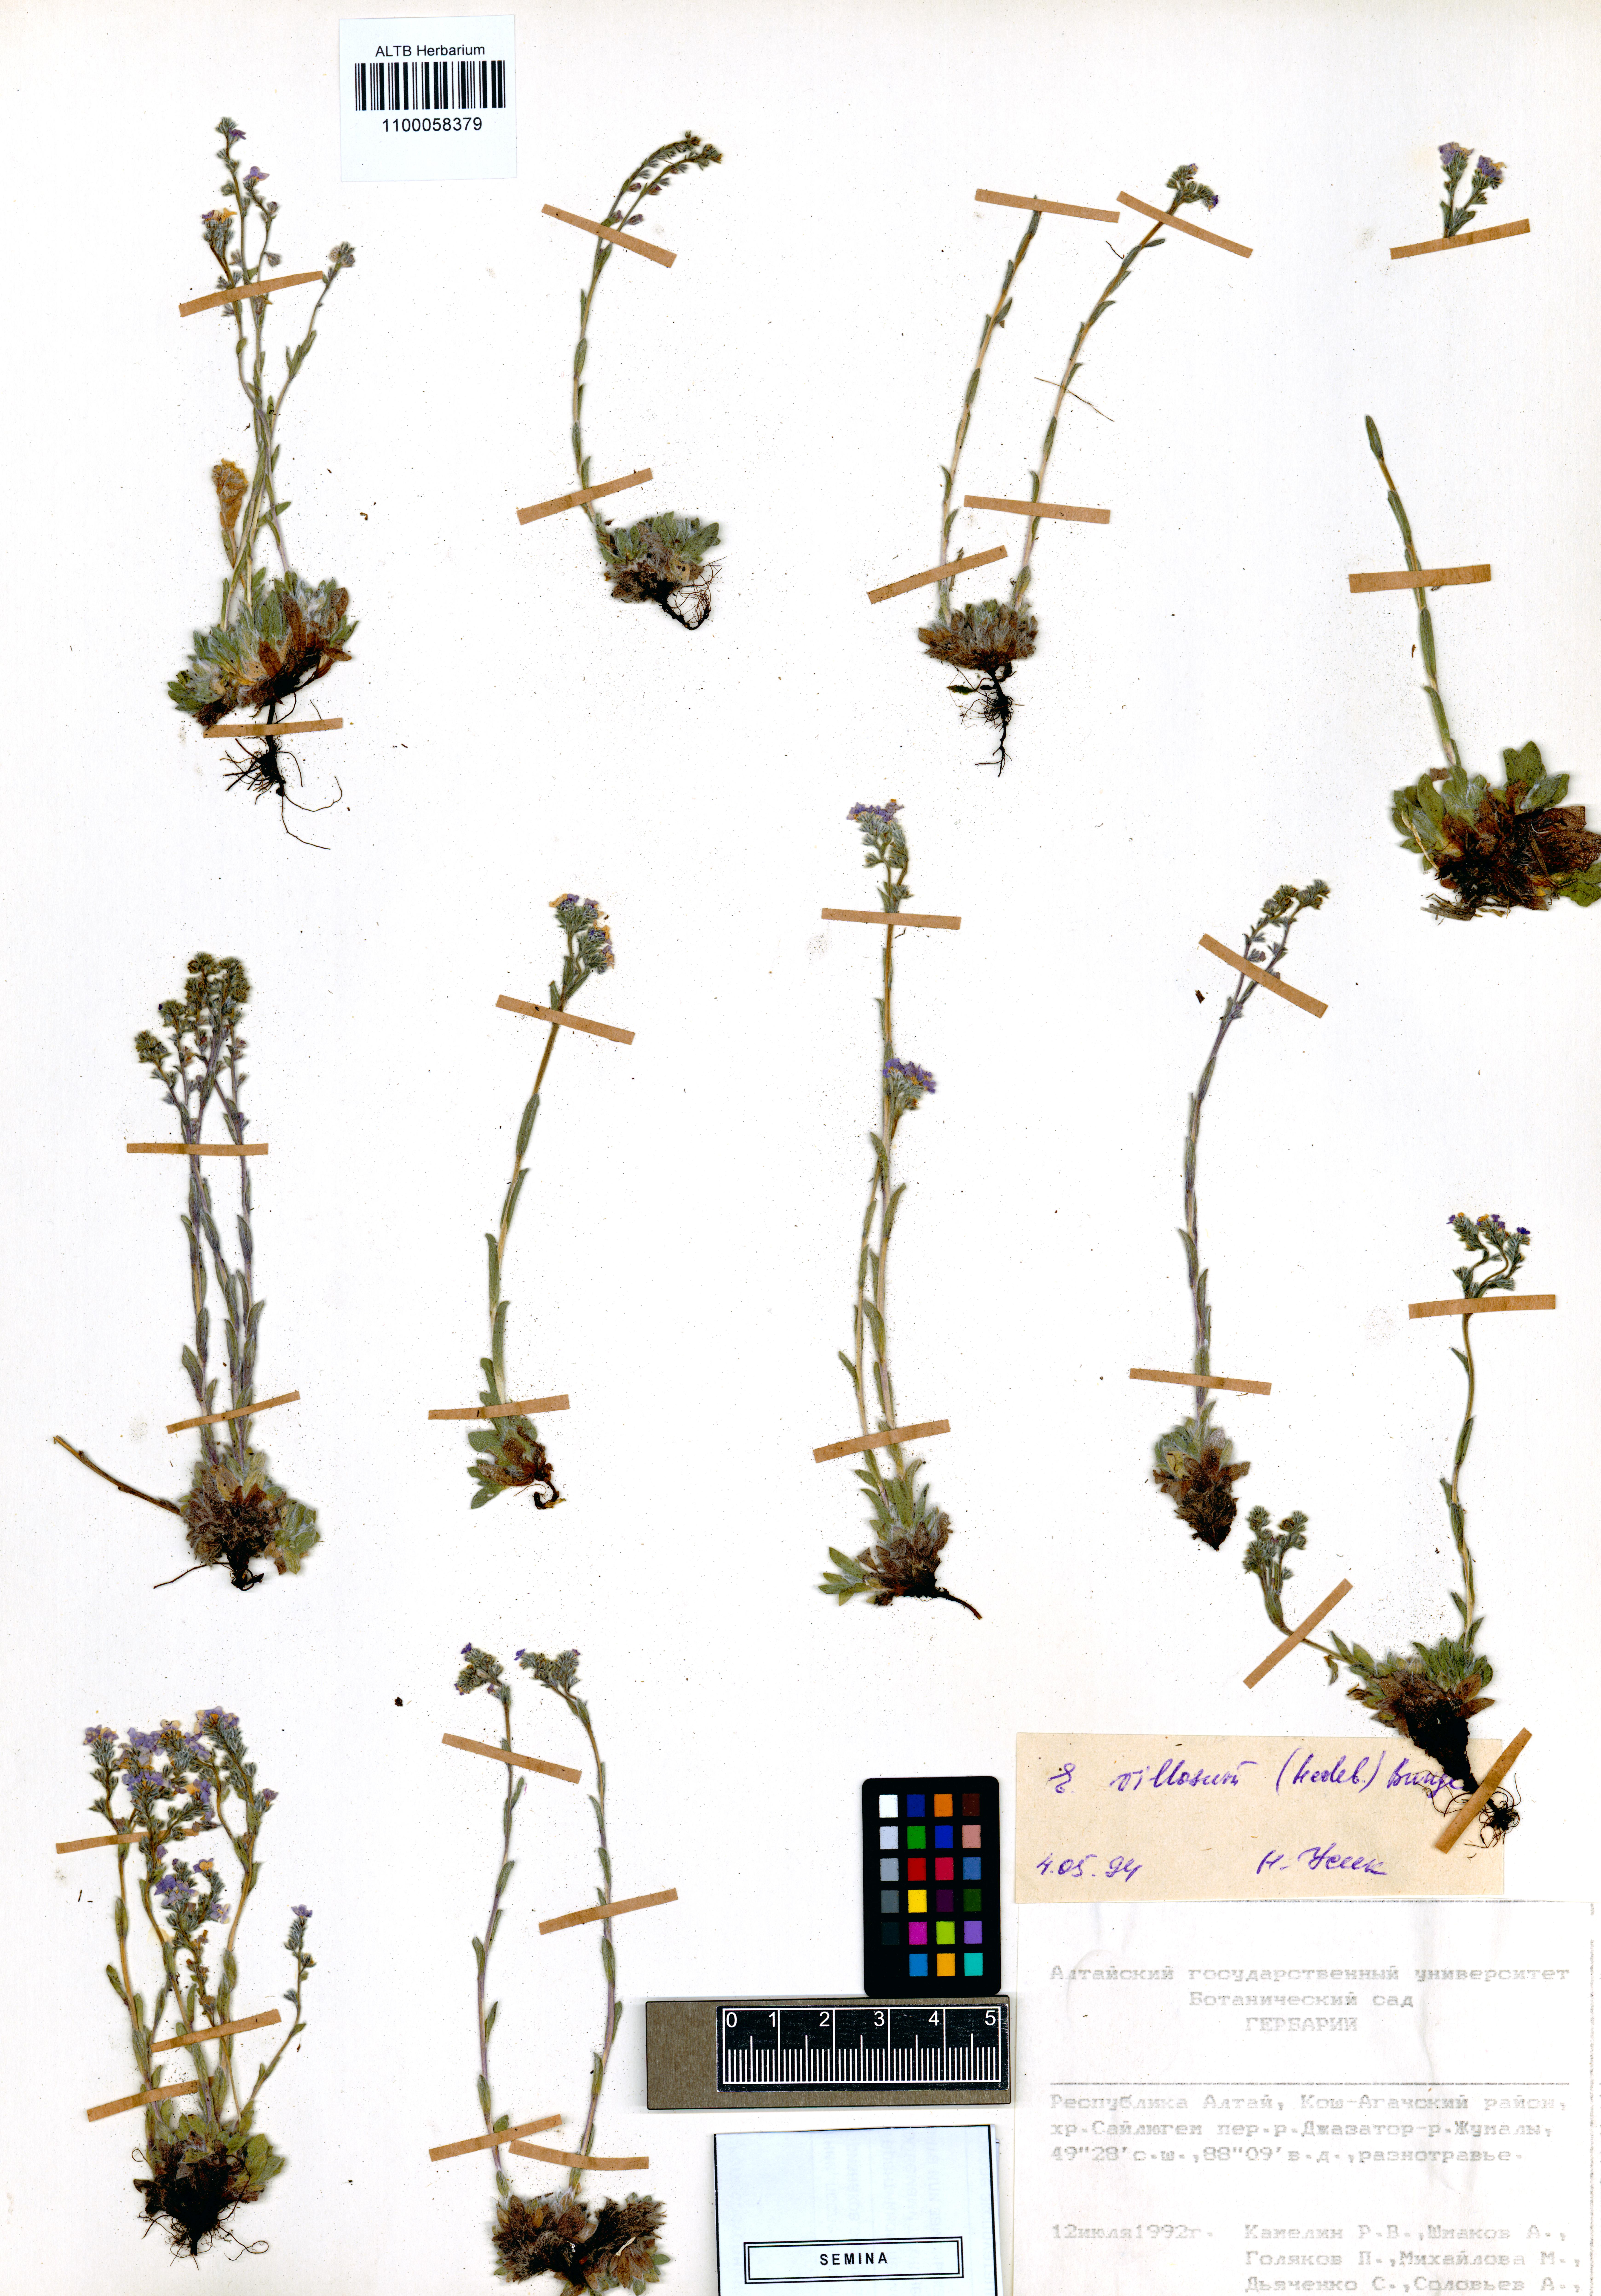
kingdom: Plantae
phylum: Tracheophyta
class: Magnoliopsida
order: Boraginales
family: Boraginaceae
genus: Eritrichium
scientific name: Eritrichium villosum
